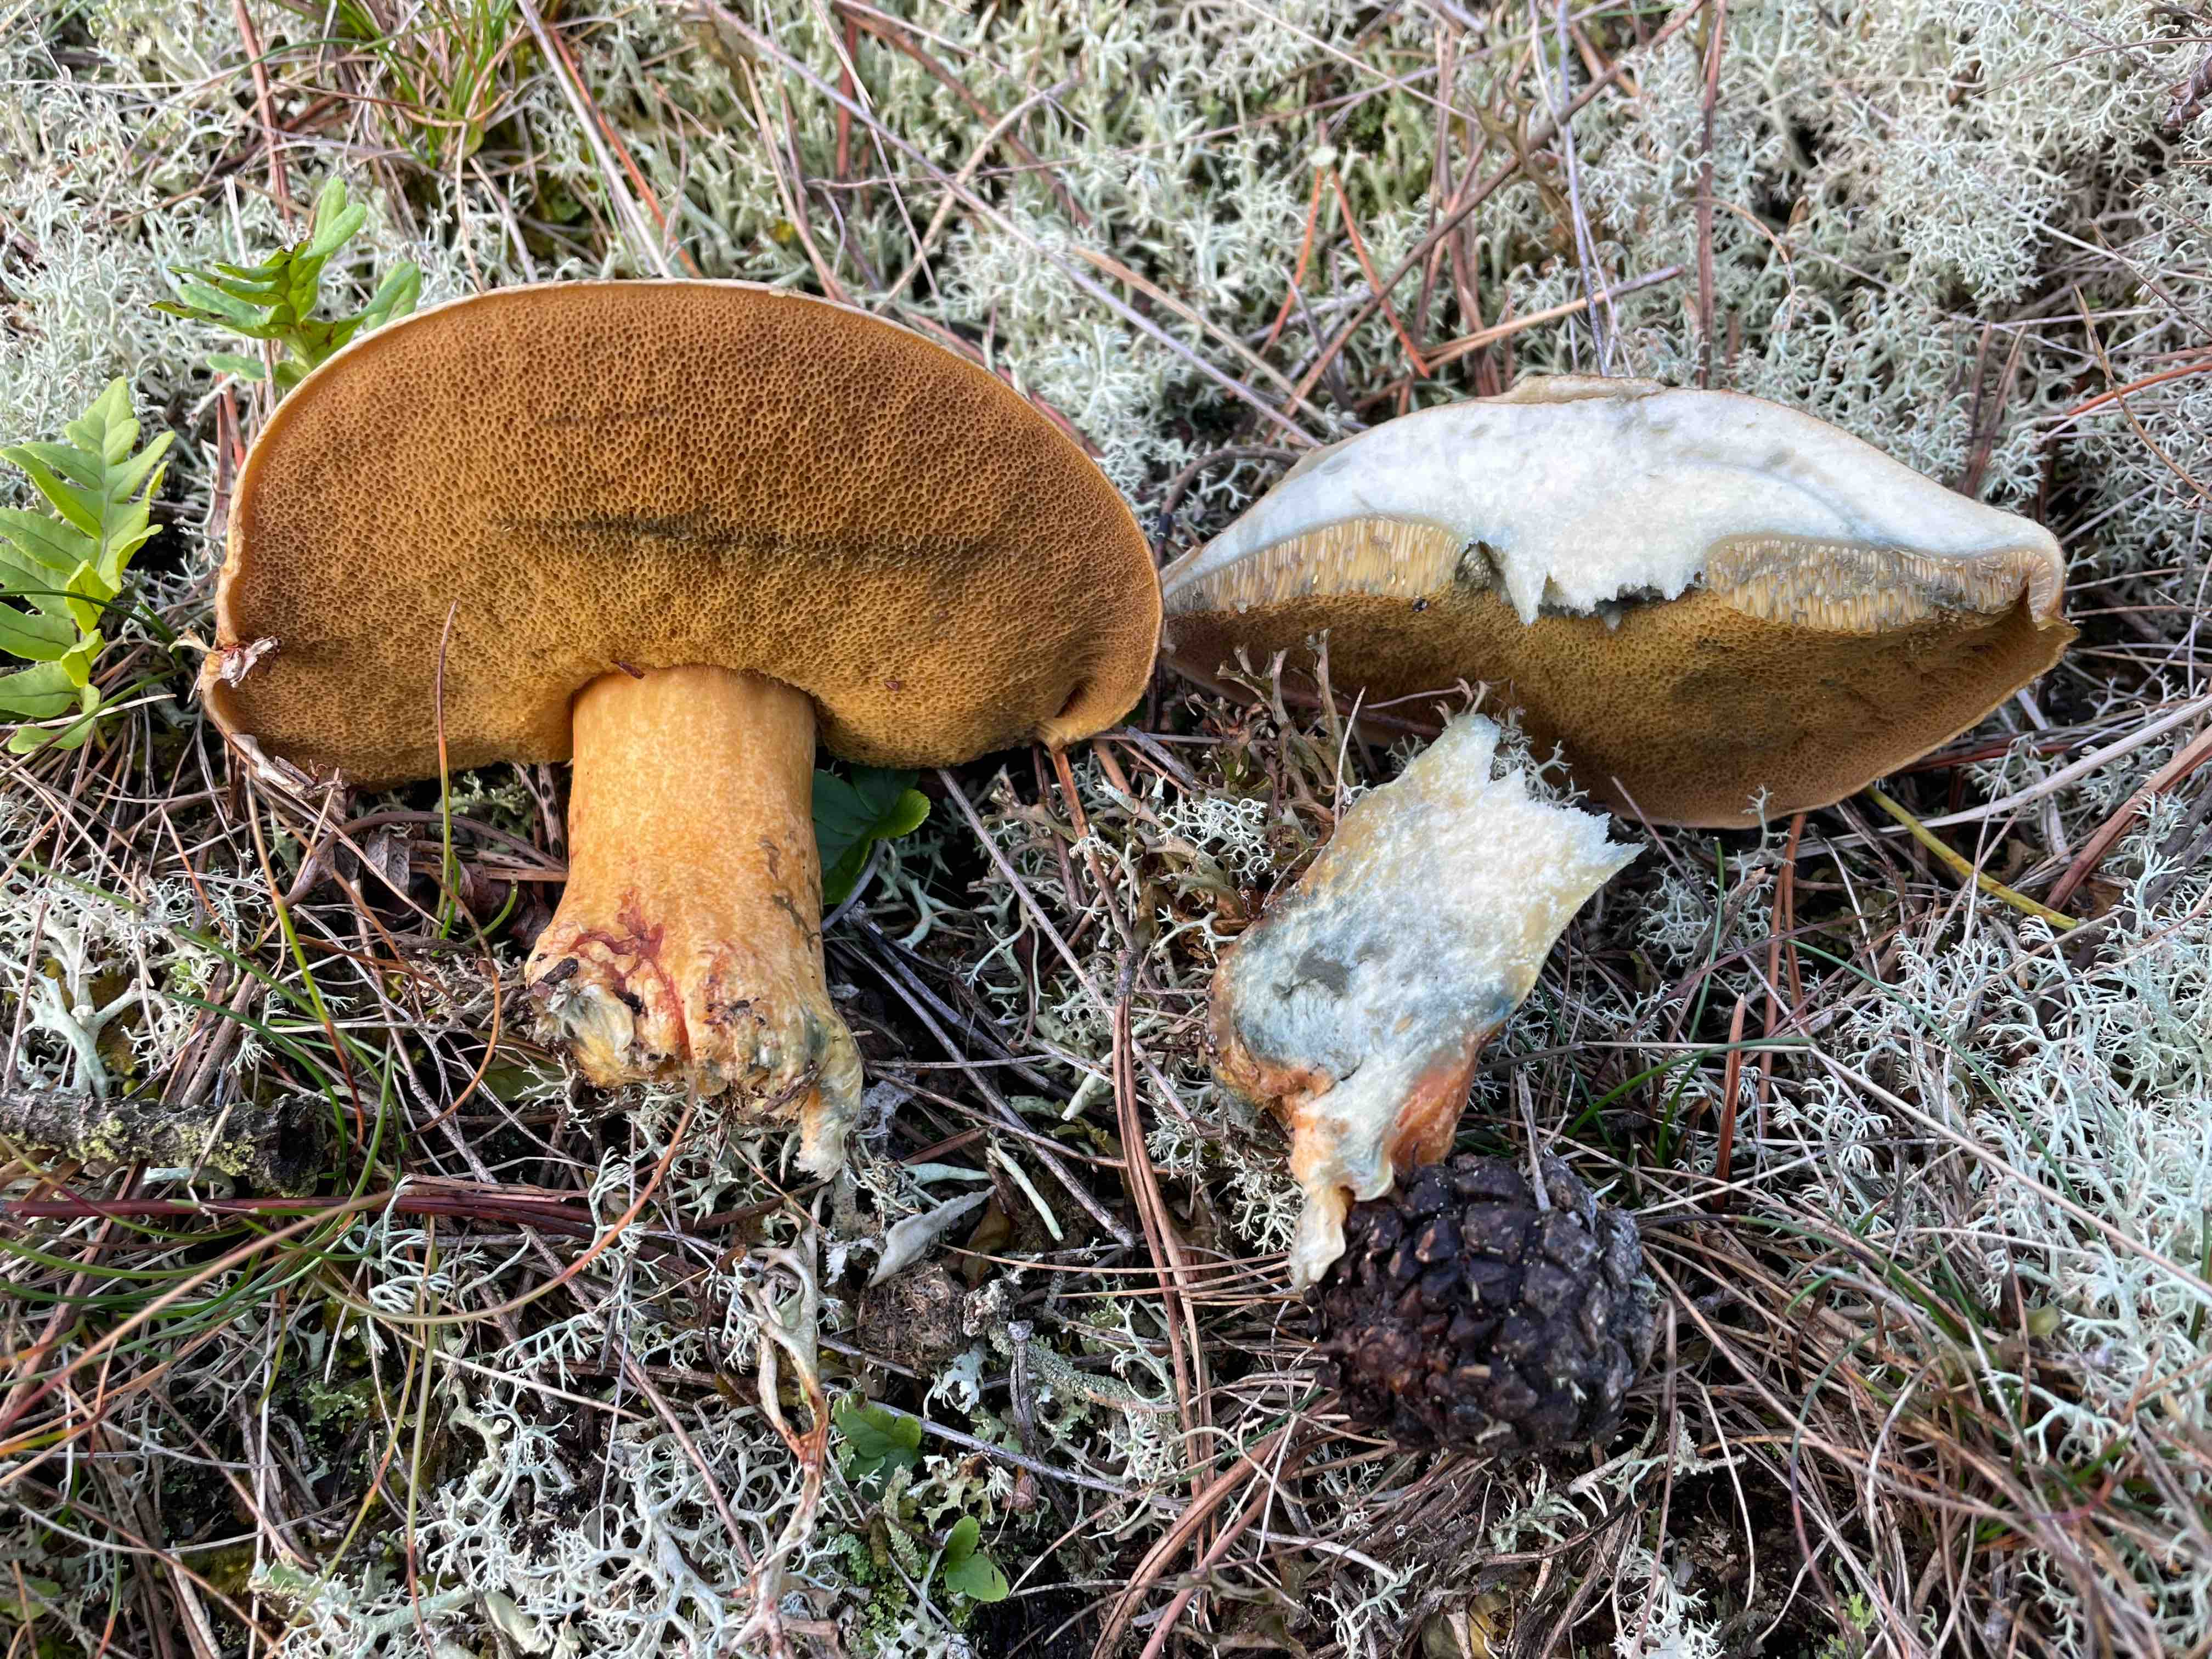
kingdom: Fungi
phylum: Basidiomycota
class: Agaricomycetes
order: Boletales
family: Suillaceae
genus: Suillus
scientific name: Suillus variegatus
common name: broget slimrørhat
